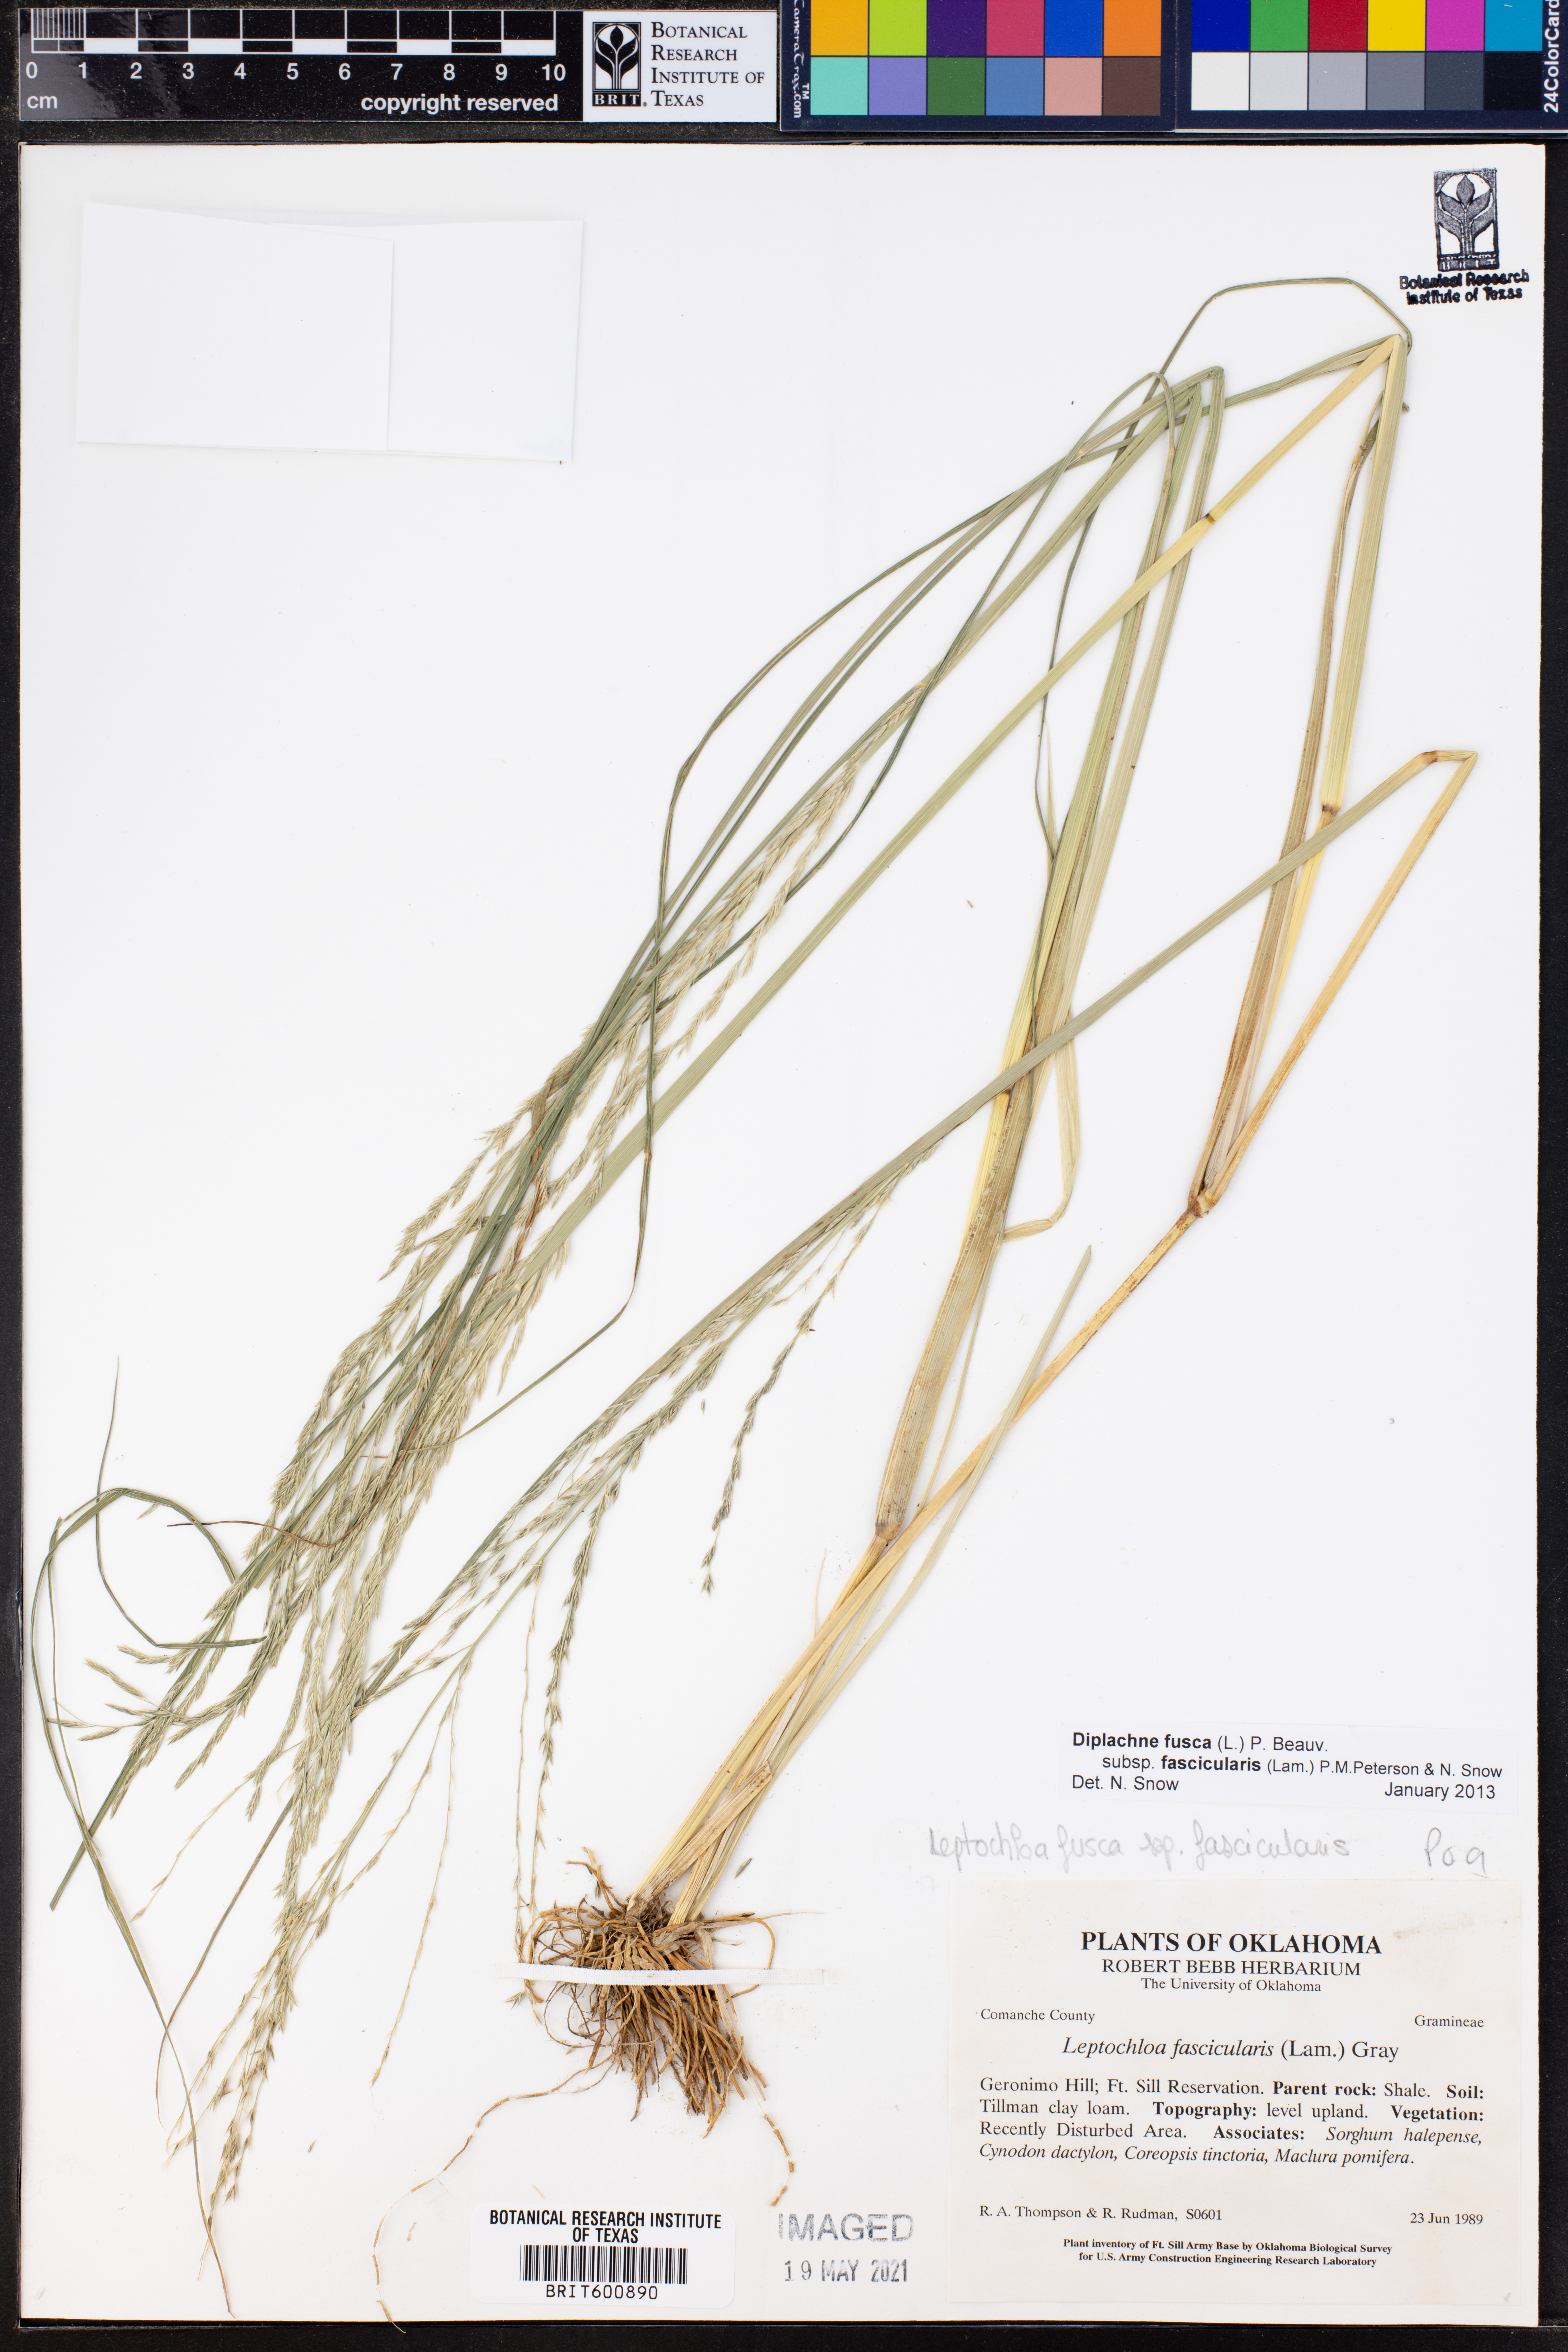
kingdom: Plantae
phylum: Tracheophyta
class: Liliopsida
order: Poales
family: Poaceae
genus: Diplachne
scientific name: Diplachne fusca
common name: Brown beetle grass
